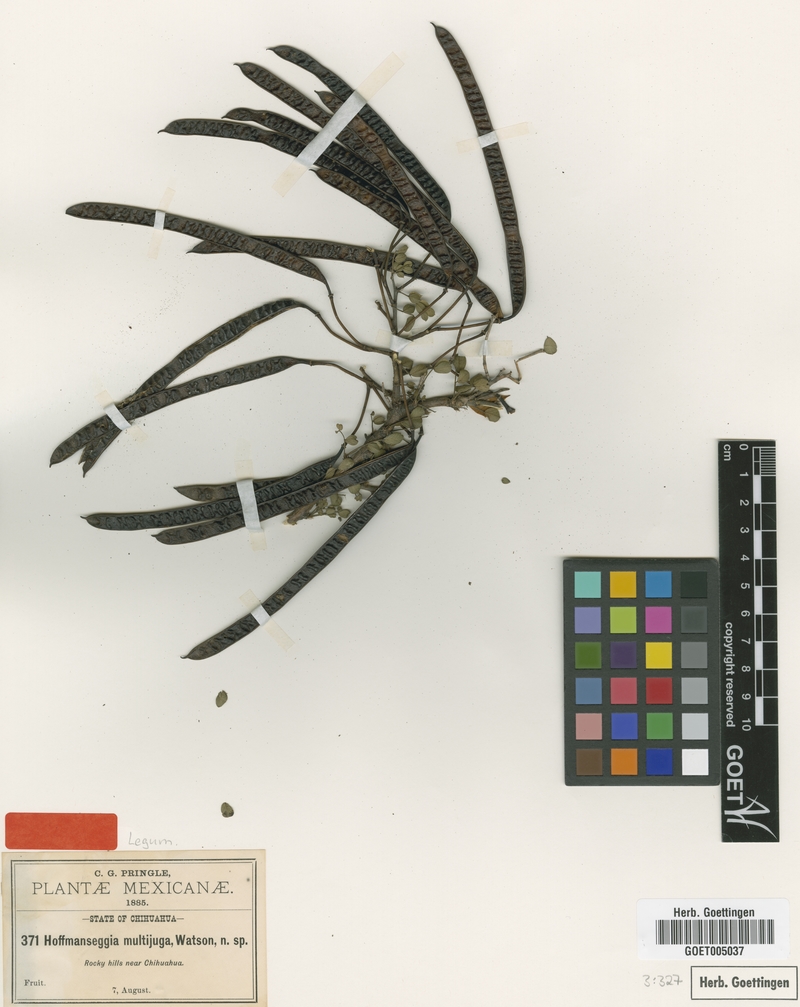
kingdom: Plantae
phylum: Tracheophyta
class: Magnoliopsida
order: Fabales
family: Fabaceae
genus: Pomaria
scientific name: Pomaria multijuga
